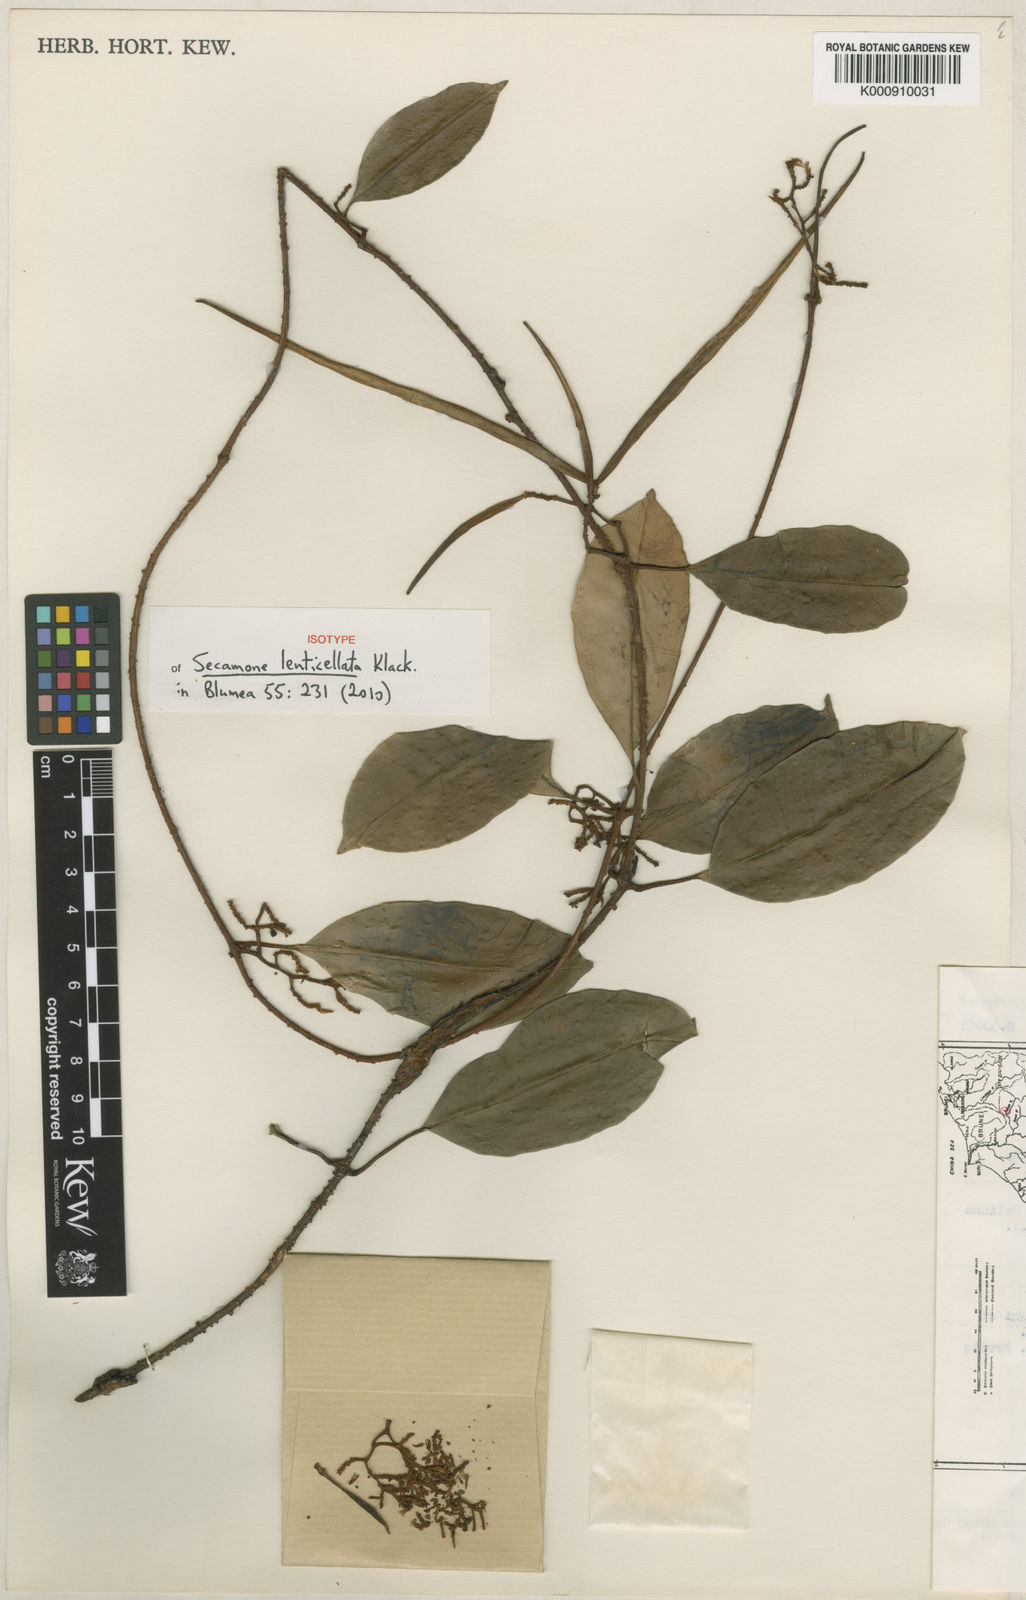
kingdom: Plantae
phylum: Tracheophyta
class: Magnoliopsida
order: Gentianales
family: Apocynaceae
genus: Secamone
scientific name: Secamone lenticellata
